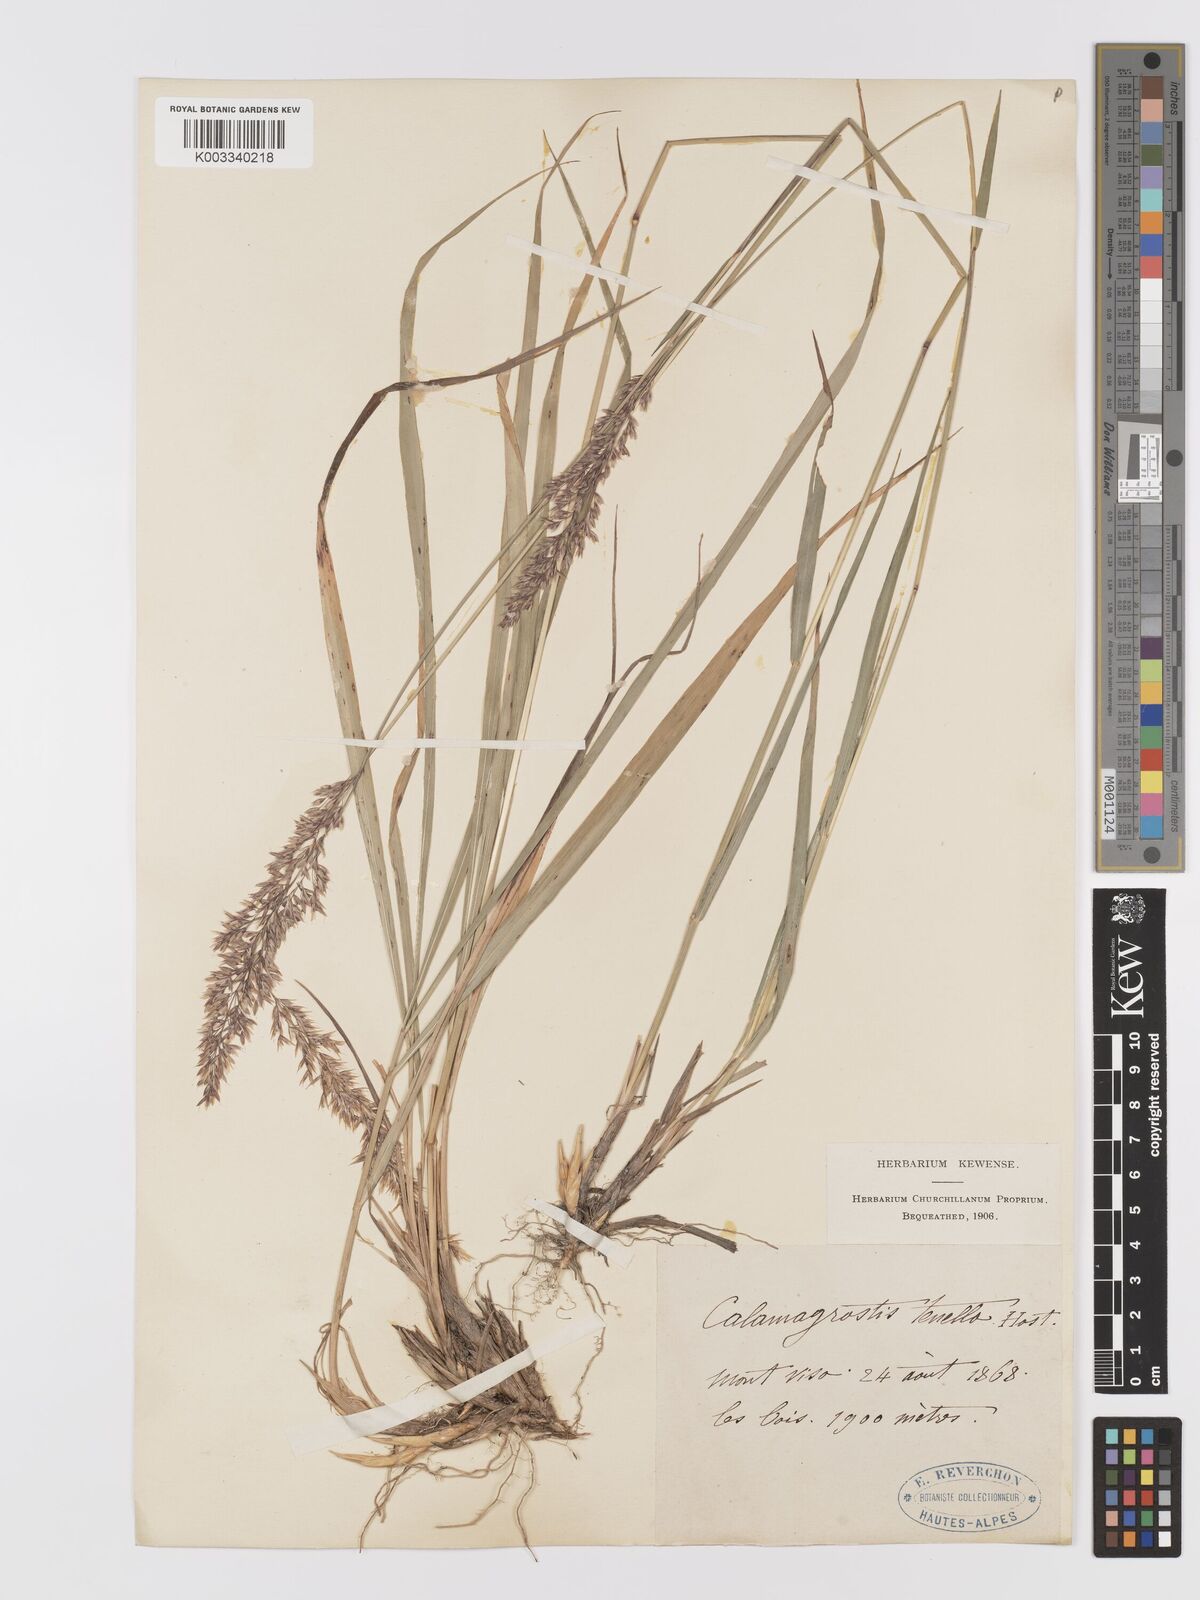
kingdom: Plantae
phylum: Tracheophyta
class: Liliopsida
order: Poales
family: Poaceae
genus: Agrostis
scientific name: Agrostis schraderiana
